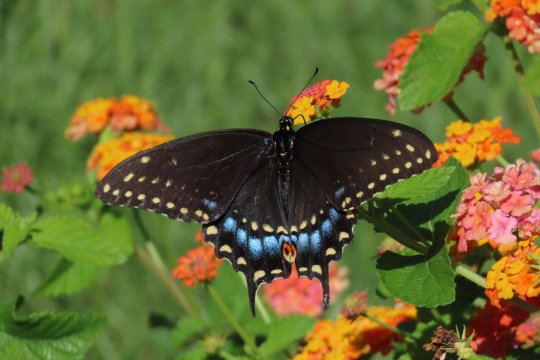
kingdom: Animalia
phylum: Arthropoda
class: Insecta
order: Lepidoptera
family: Papilionidae
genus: Papilio
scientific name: Papilio polyxenes
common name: Black Swallowtail
